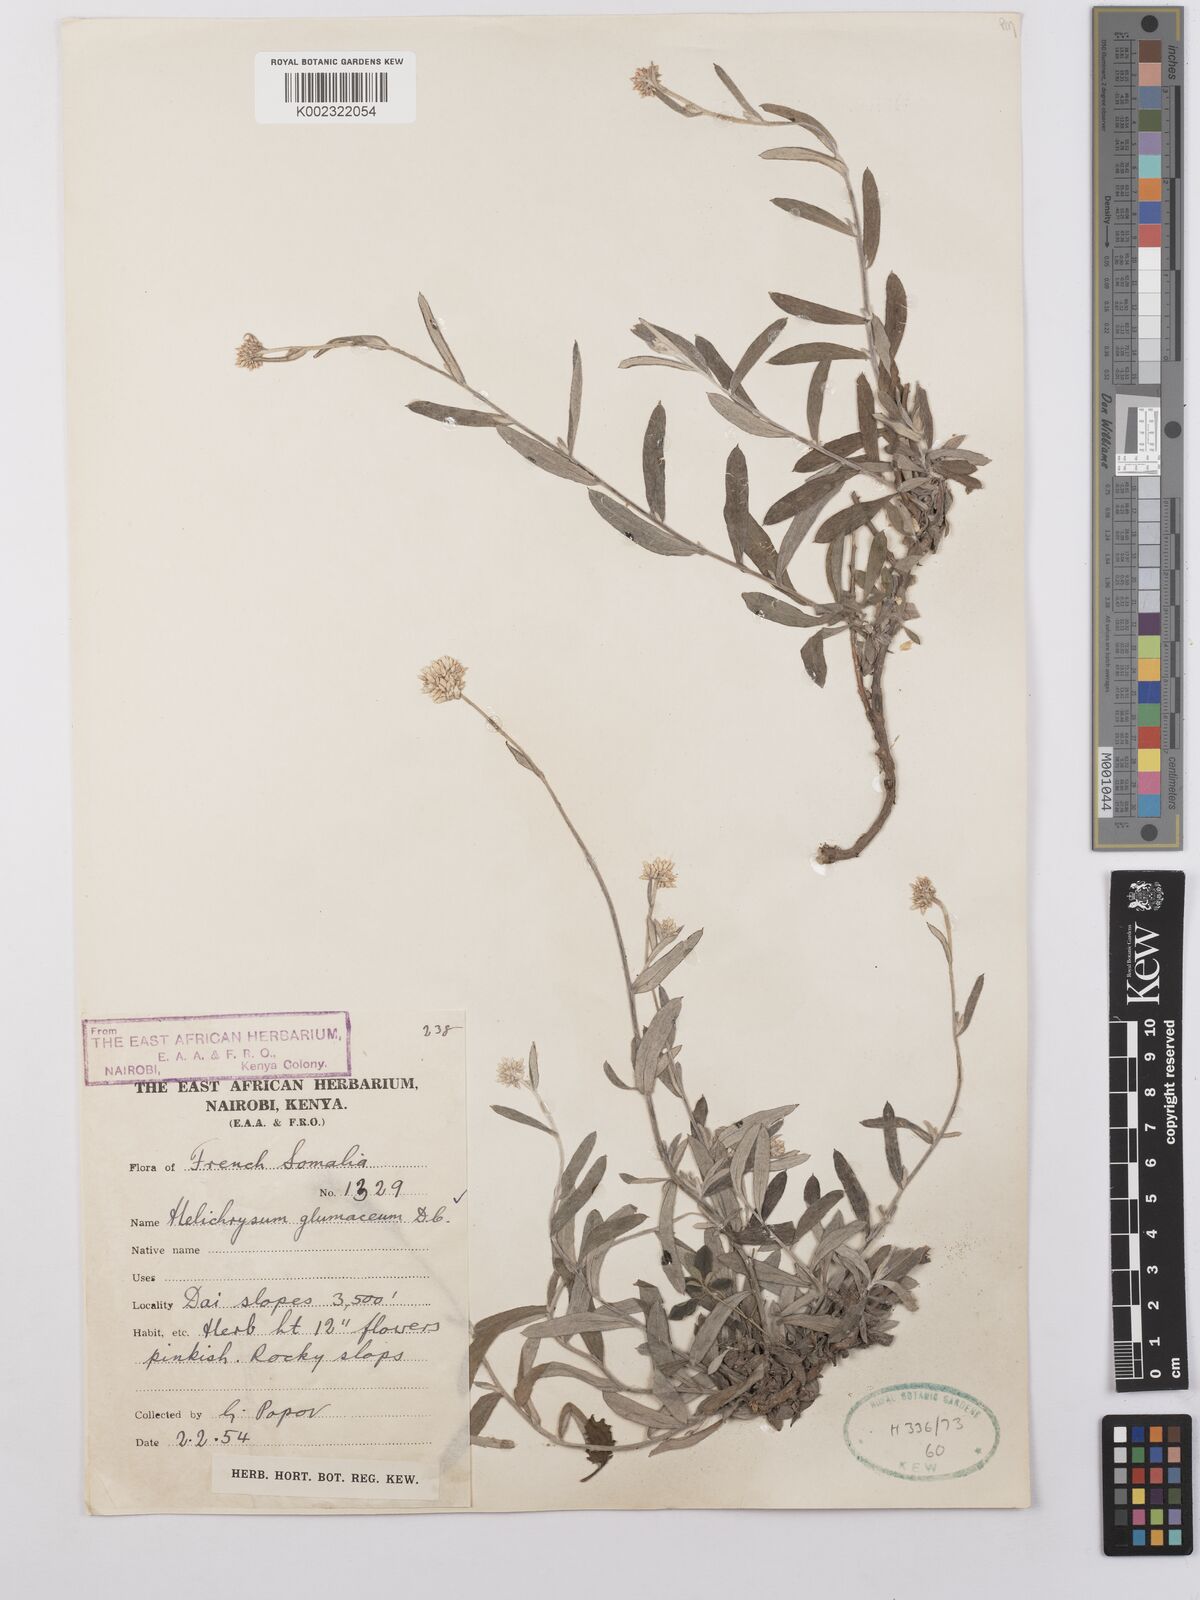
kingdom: Plantae
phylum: Tracheophyta
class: Magnoliopsida
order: Asterales
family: Asteraceae
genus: Helichrysum
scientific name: Helichrysum glumaceum
